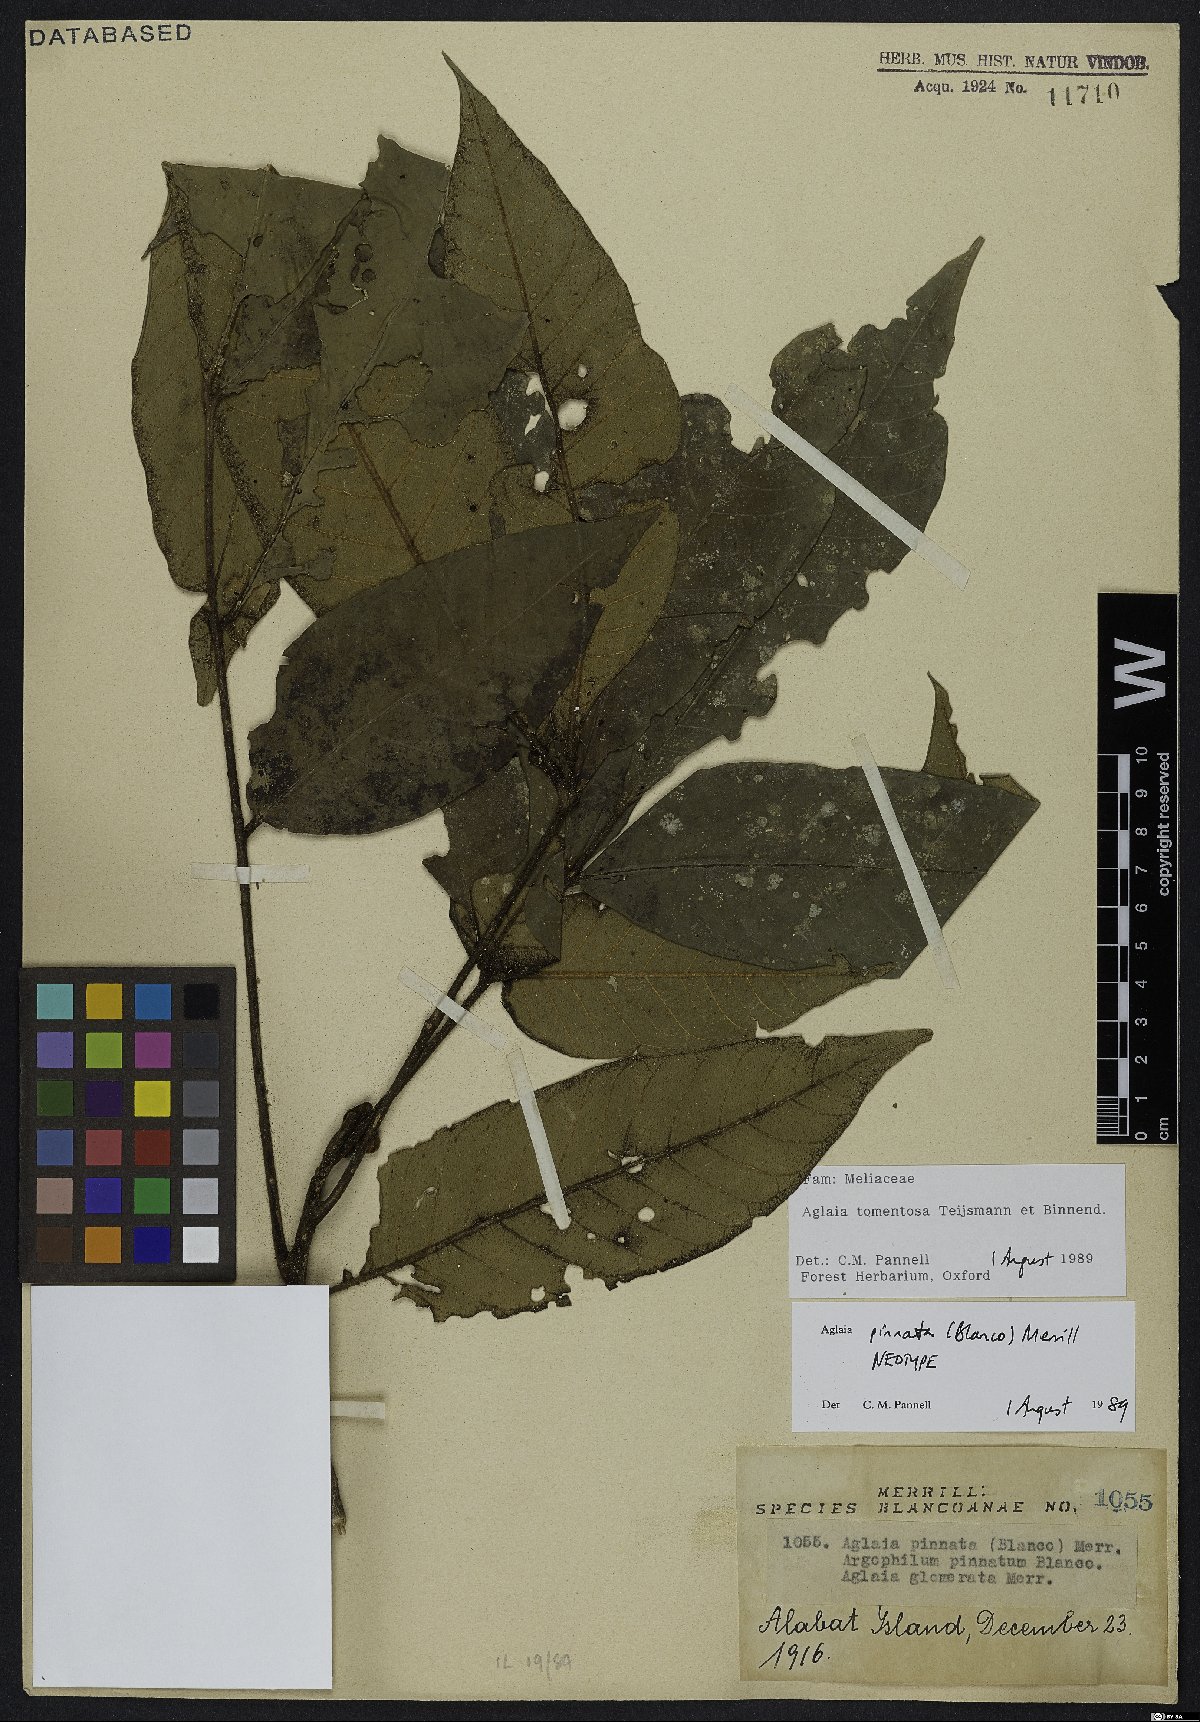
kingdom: Plantae
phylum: Tracheophyta
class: Magnoliopsida
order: Sapindales
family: Meliaceae
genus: Aglaia
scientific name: Aglaia tomentosa
